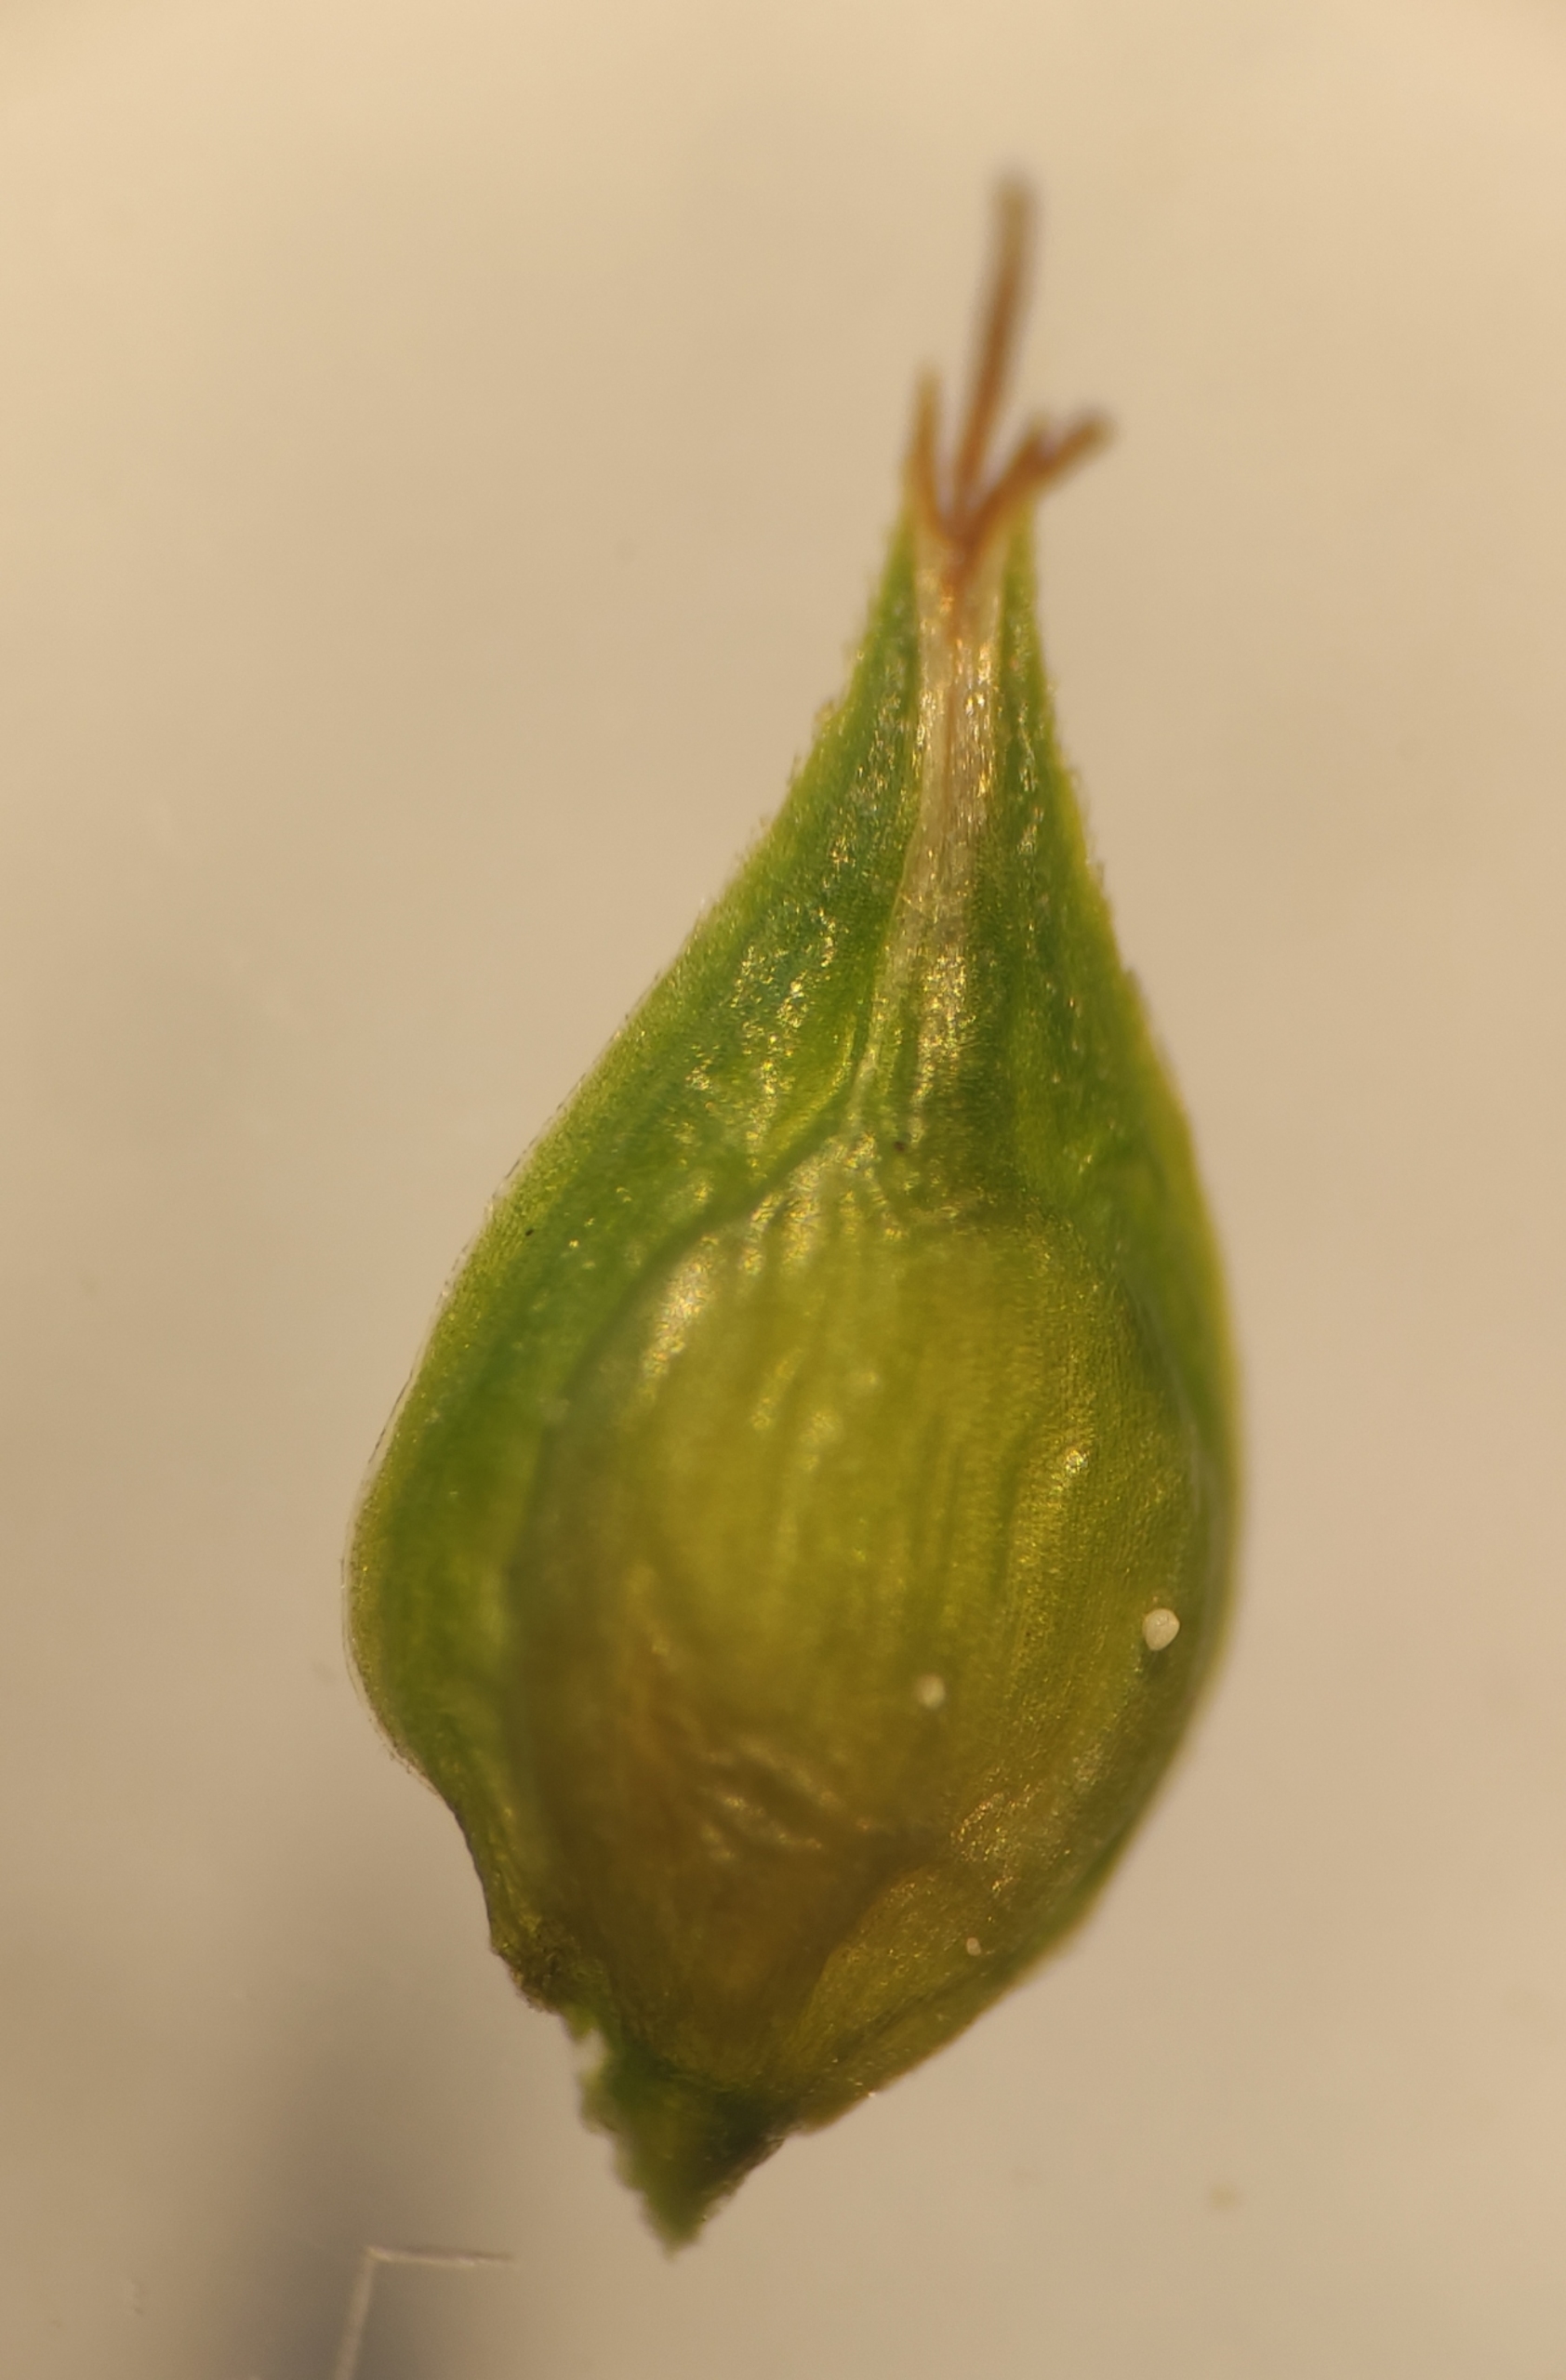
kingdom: Plantae
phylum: Tracheophyta
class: Liliopsida
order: Poales
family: Cyperaceae
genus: Carex
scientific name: Carex divulsa
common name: Mellembrudt star
